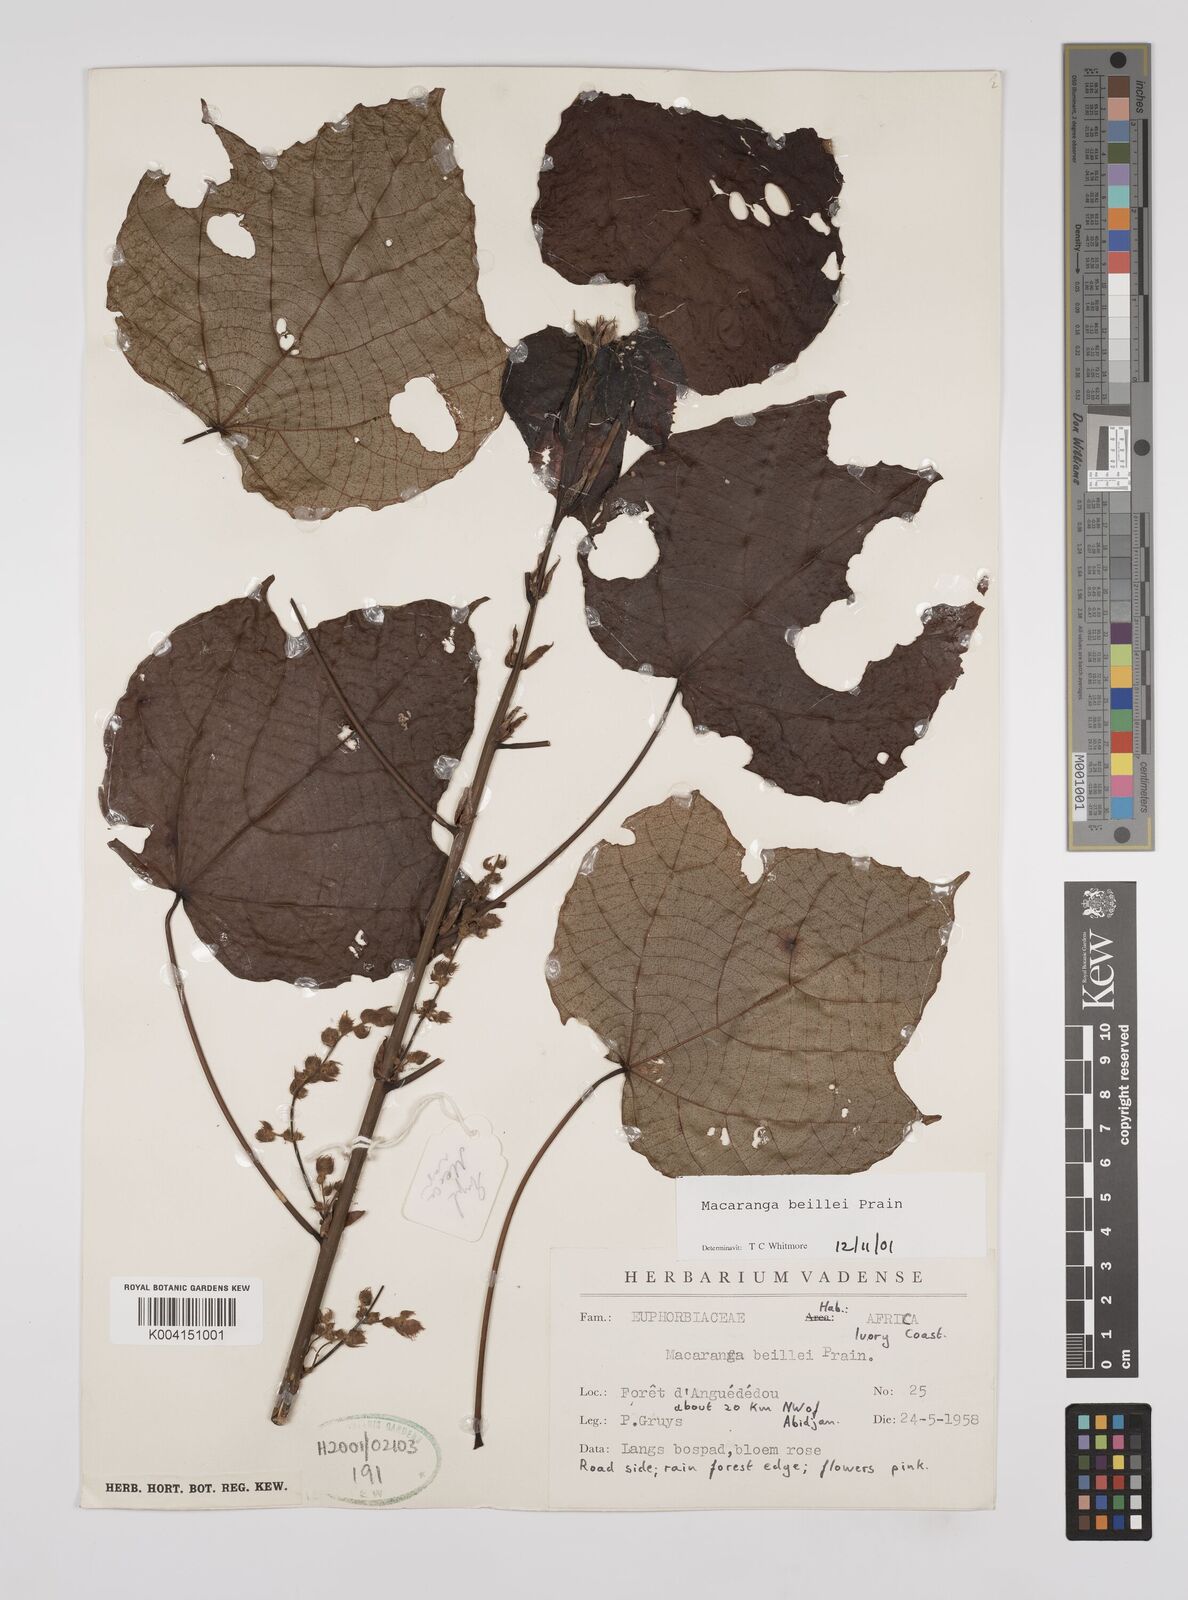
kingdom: Plantae
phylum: Tracheophyta
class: Magnoliopsida
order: Malpighiales
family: Euphorbiaceae
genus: Macaranga
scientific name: Macaranga beillei
